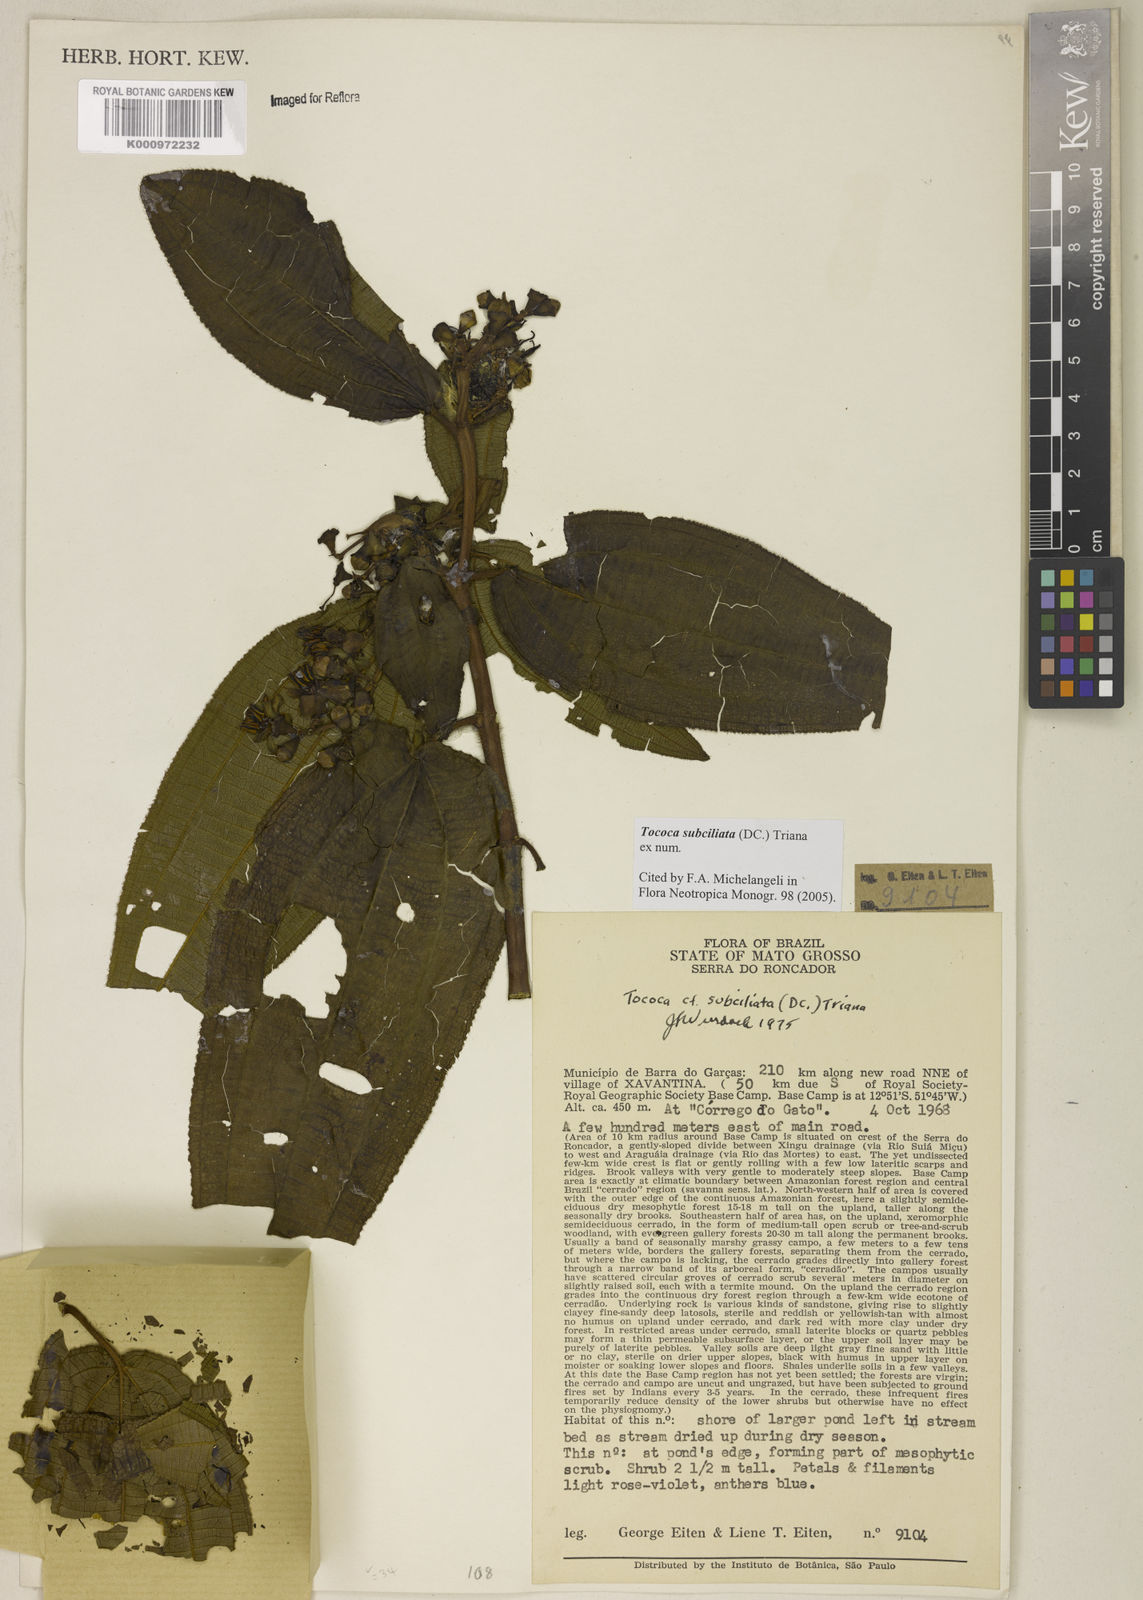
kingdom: Plantae
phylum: Tracheophyta
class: Magnoliopsida
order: Myrtales
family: Melastomataceae
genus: Miconia
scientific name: Miconia subciliata
